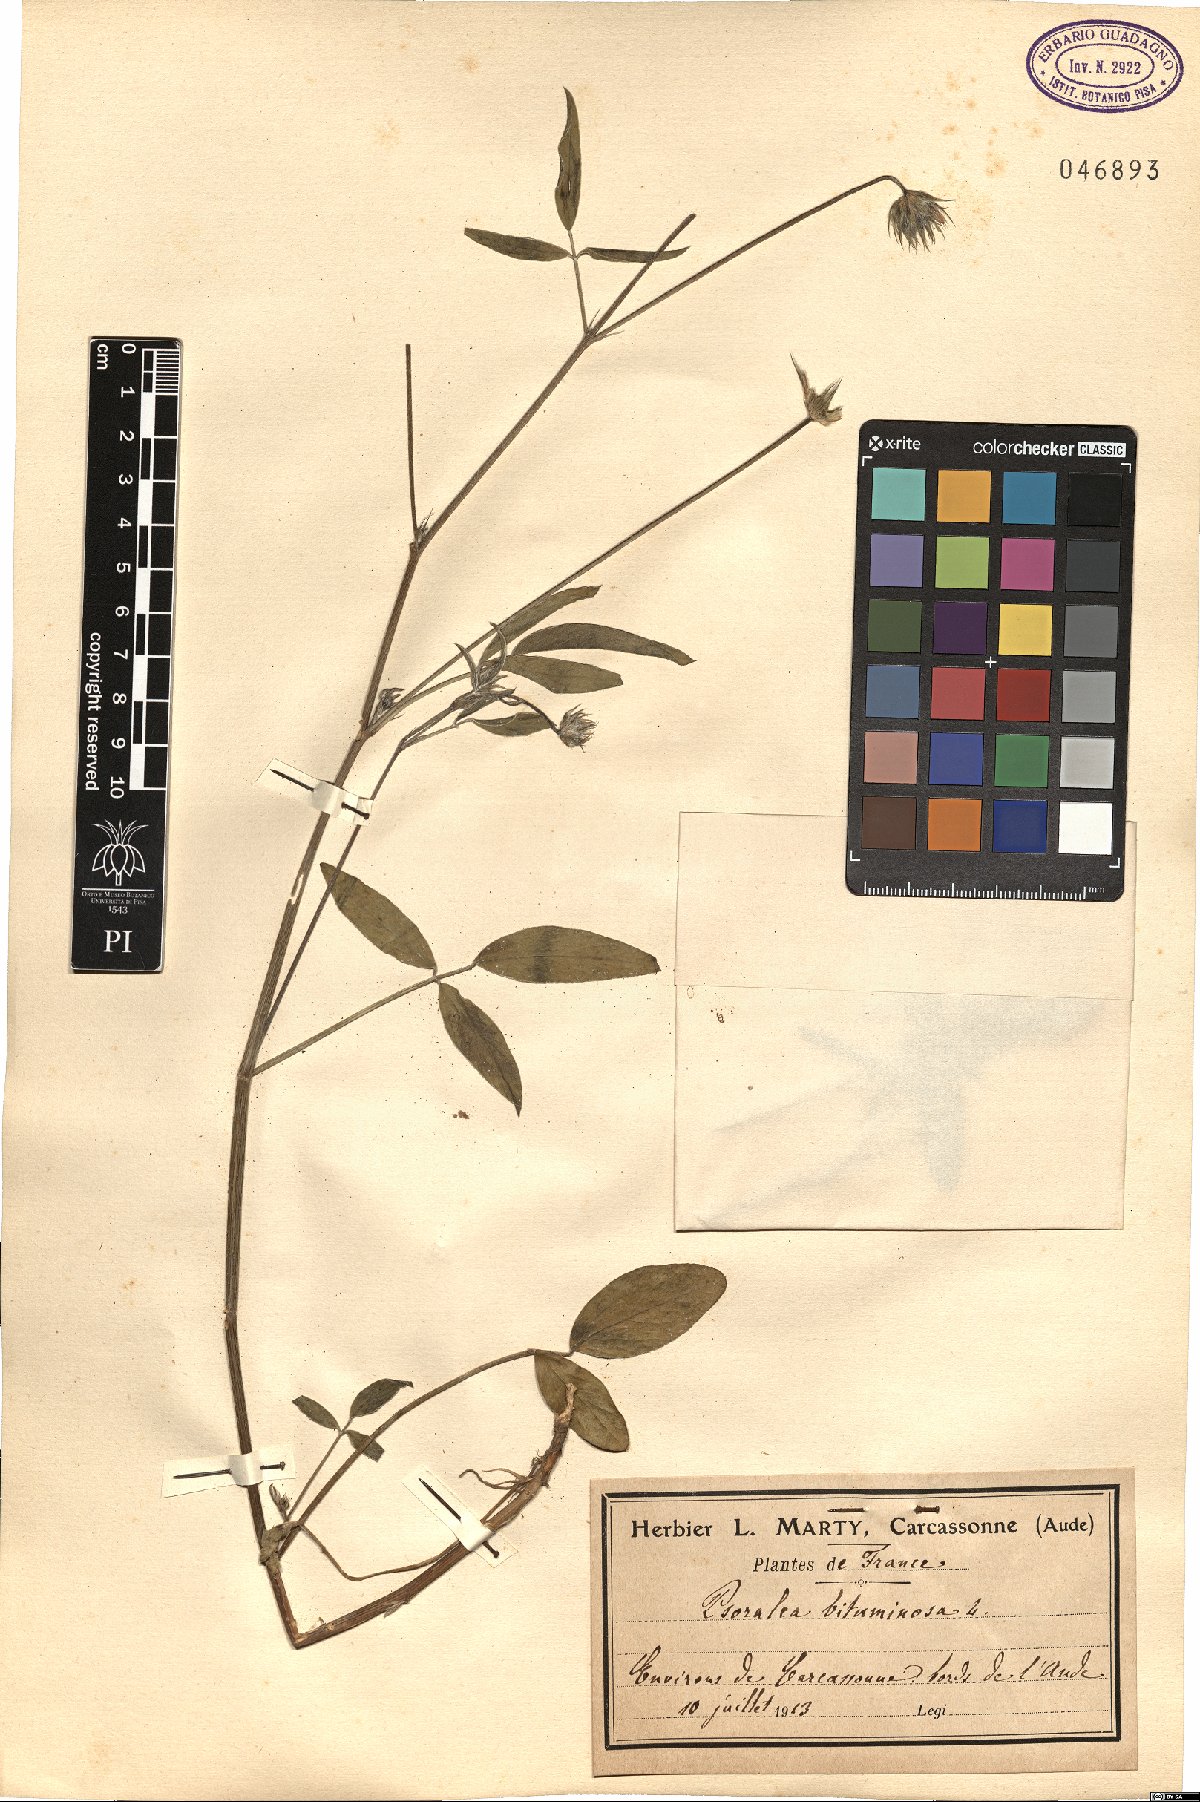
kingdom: Plantae
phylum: Tracheophyta
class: Magnoliopsida
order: Fabales
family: Fabaceae
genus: Bituminaria
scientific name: Bituminaria bituminosa
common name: Arabian pea
